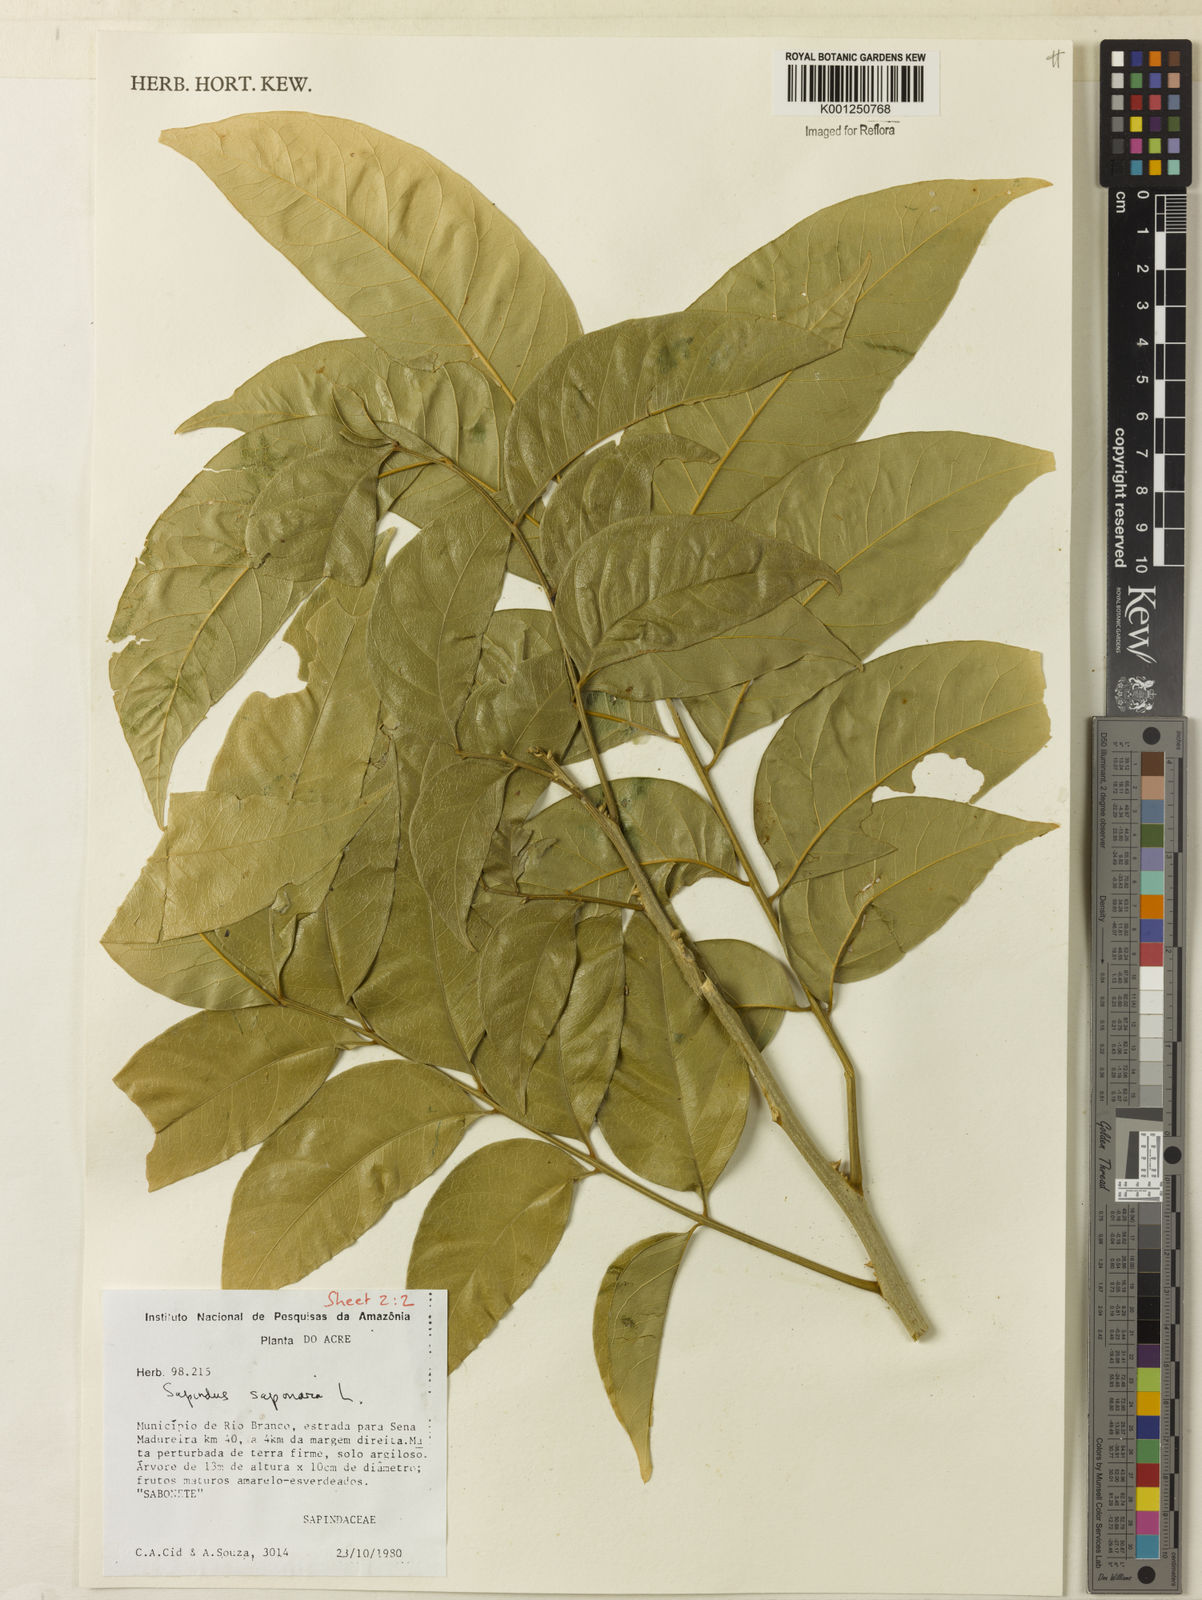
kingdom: Plantae
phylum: Tracheophyta
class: Magnoliopsida
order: Sapindales
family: Sapindaceae
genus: Sapindus
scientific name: Sapindus
